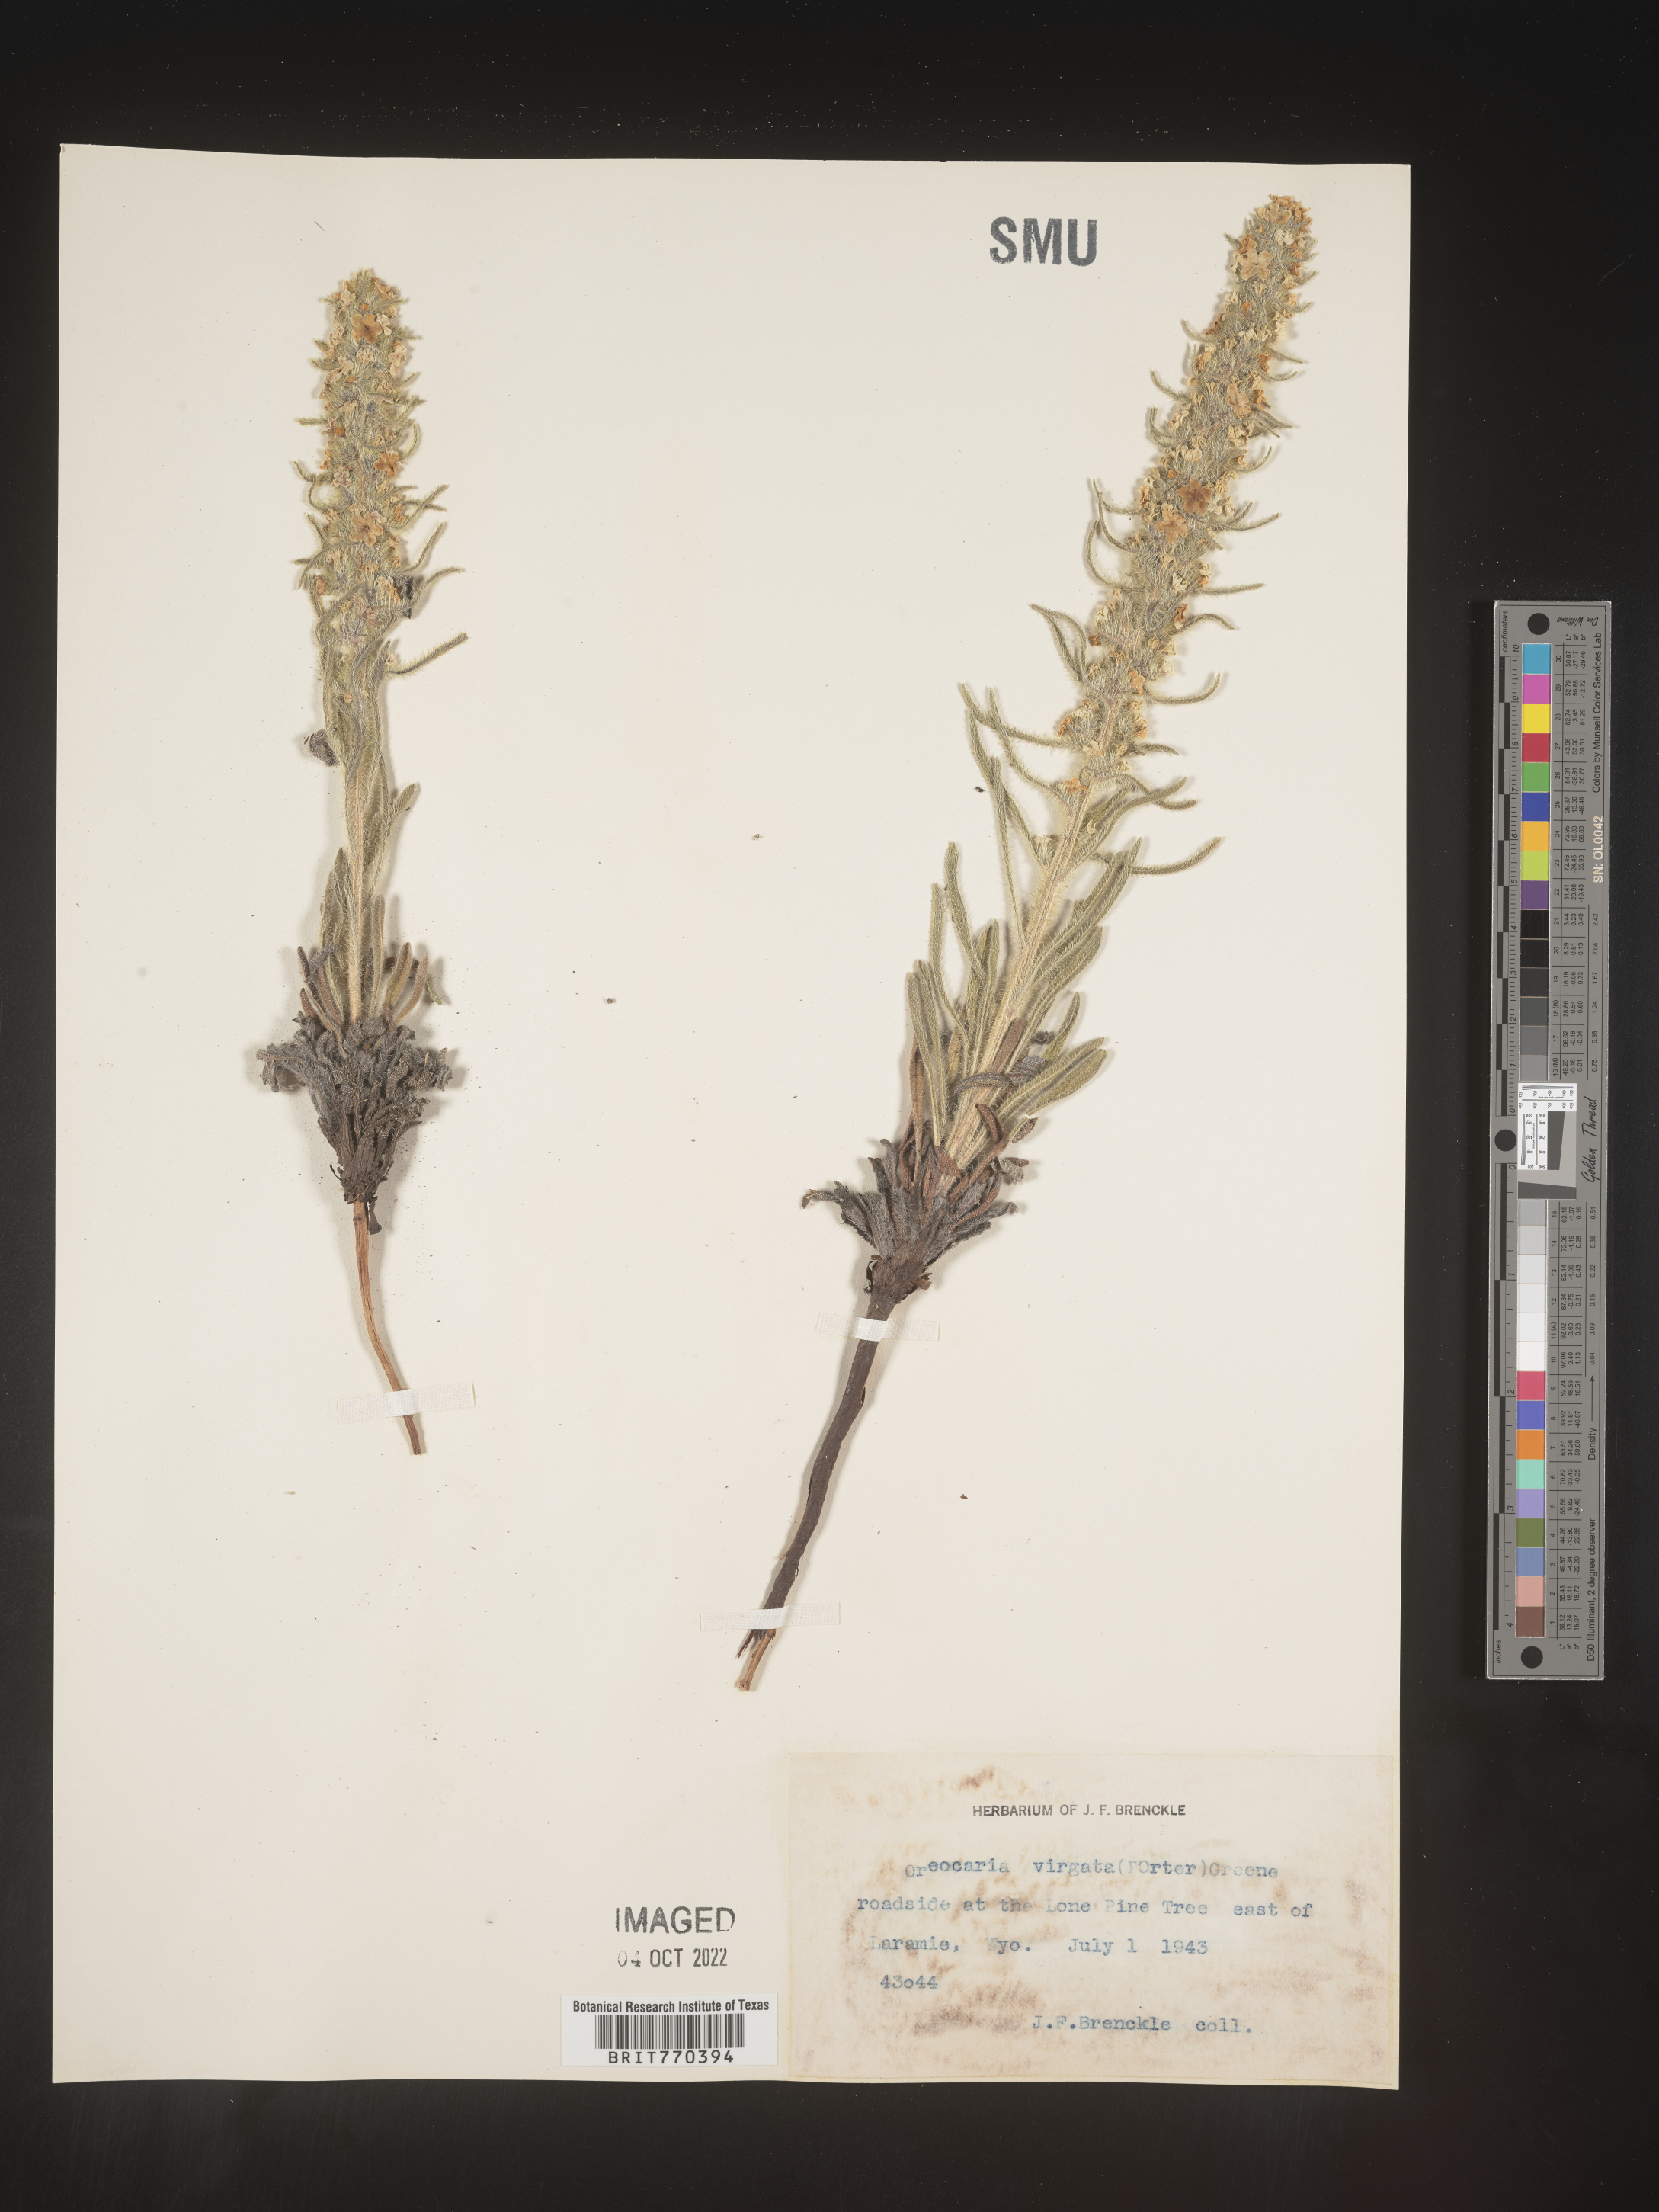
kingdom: Plantae
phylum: Tracheophyta
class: Magnoliopsida
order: Boraginales
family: Boraginaceae
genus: Oreocarya
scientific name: Oreocarya
